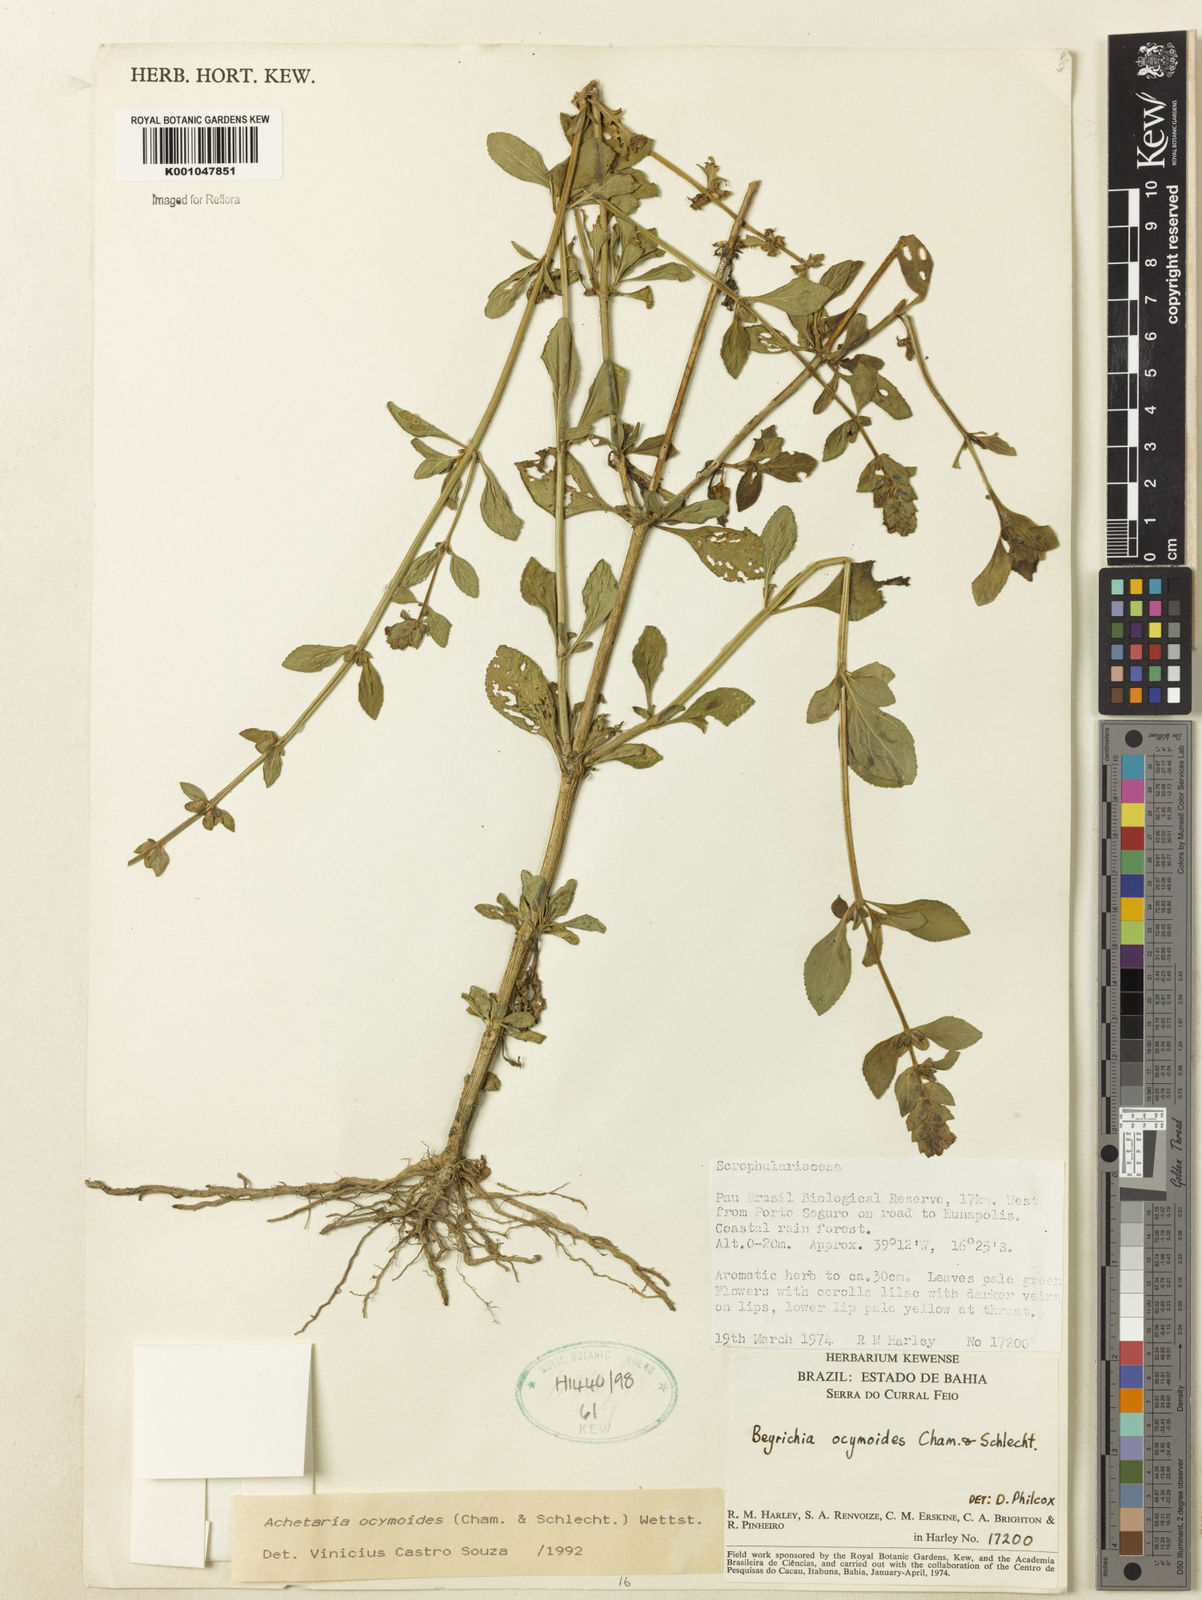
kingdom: Plantae
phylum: Tracheophyta
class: Magnoliopsida
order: Lamiales
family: Plantaginaceae
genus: Matourea
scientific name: Matourea ocymoides
